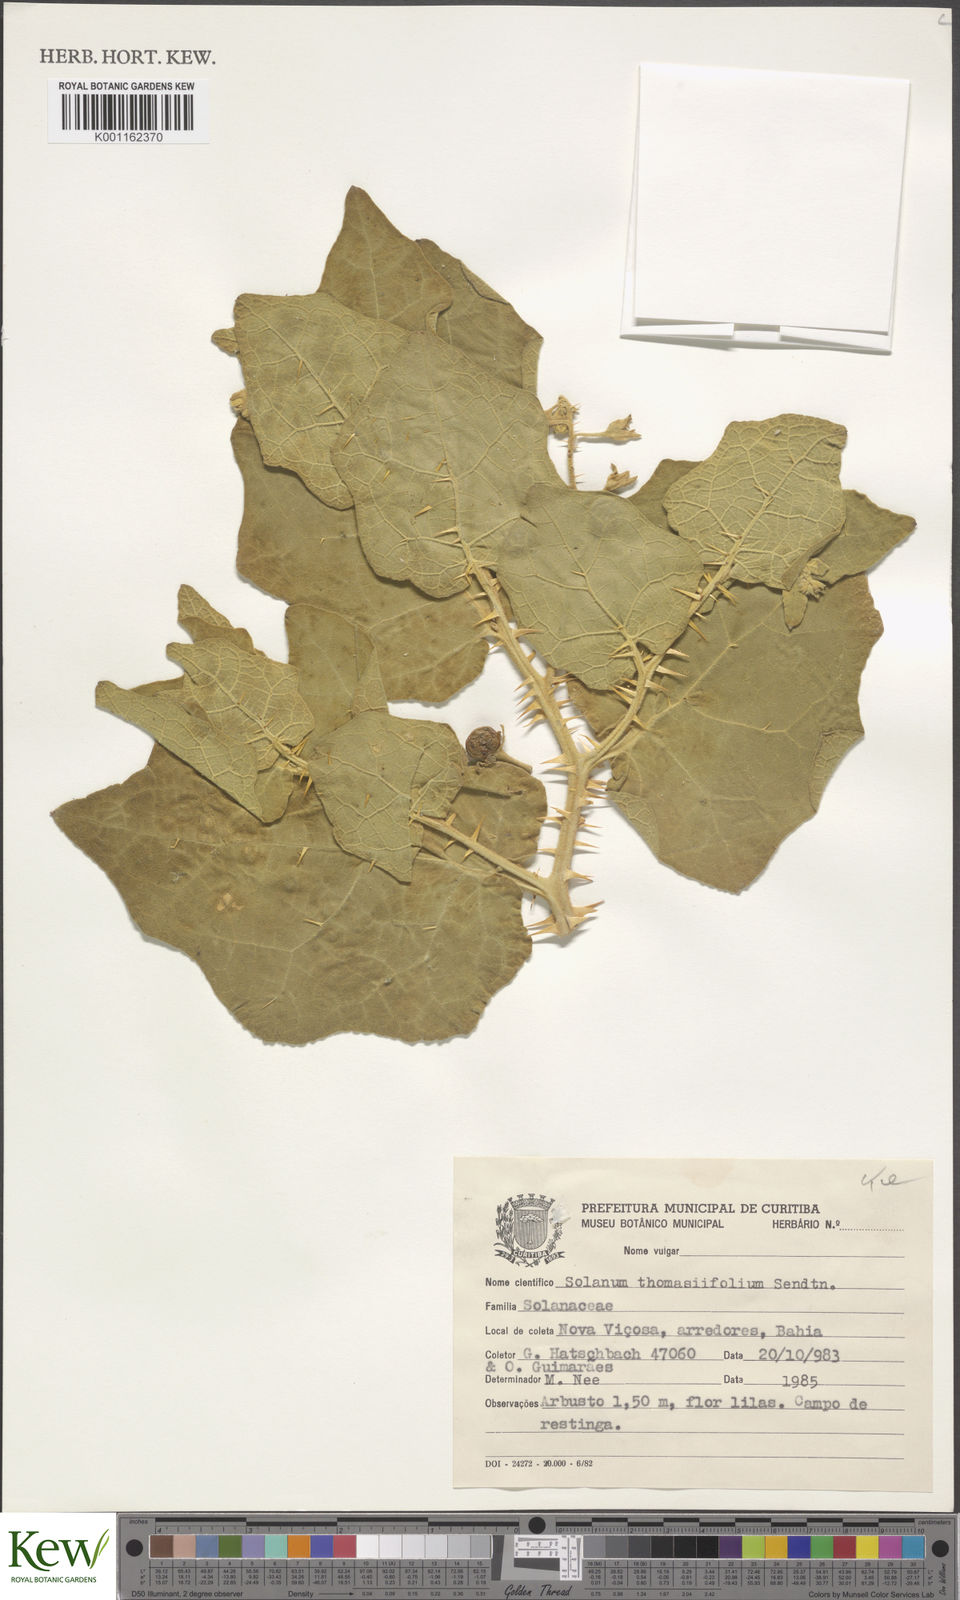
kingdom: Plantae
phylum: Tracheophyta
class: Magnoliopsida
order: Solanales
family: Solanaceae
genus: Solanum
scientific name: Solanum thomasiifolium
